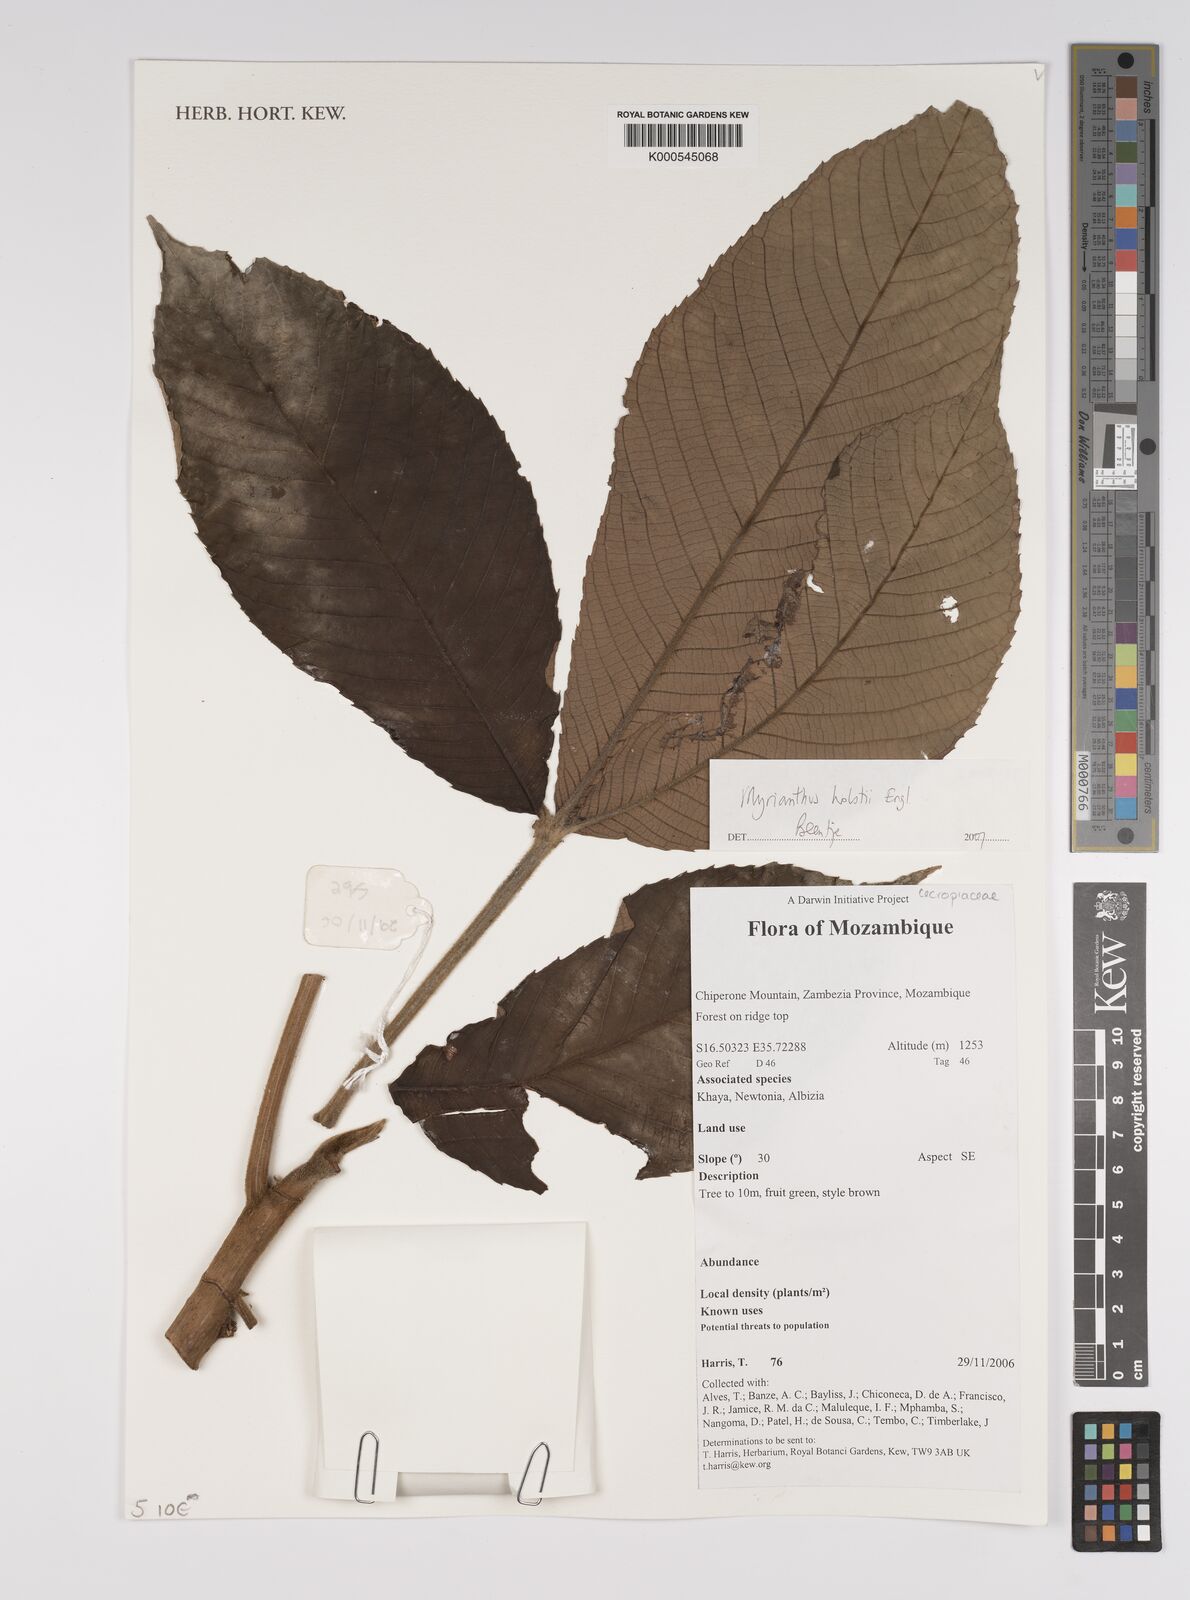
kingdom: Plantae
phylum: Tracheophyta
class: Magnoliopsida
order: Rosales
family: Urticaceae
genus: Myrianthus
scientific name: Myrianthus holstii
